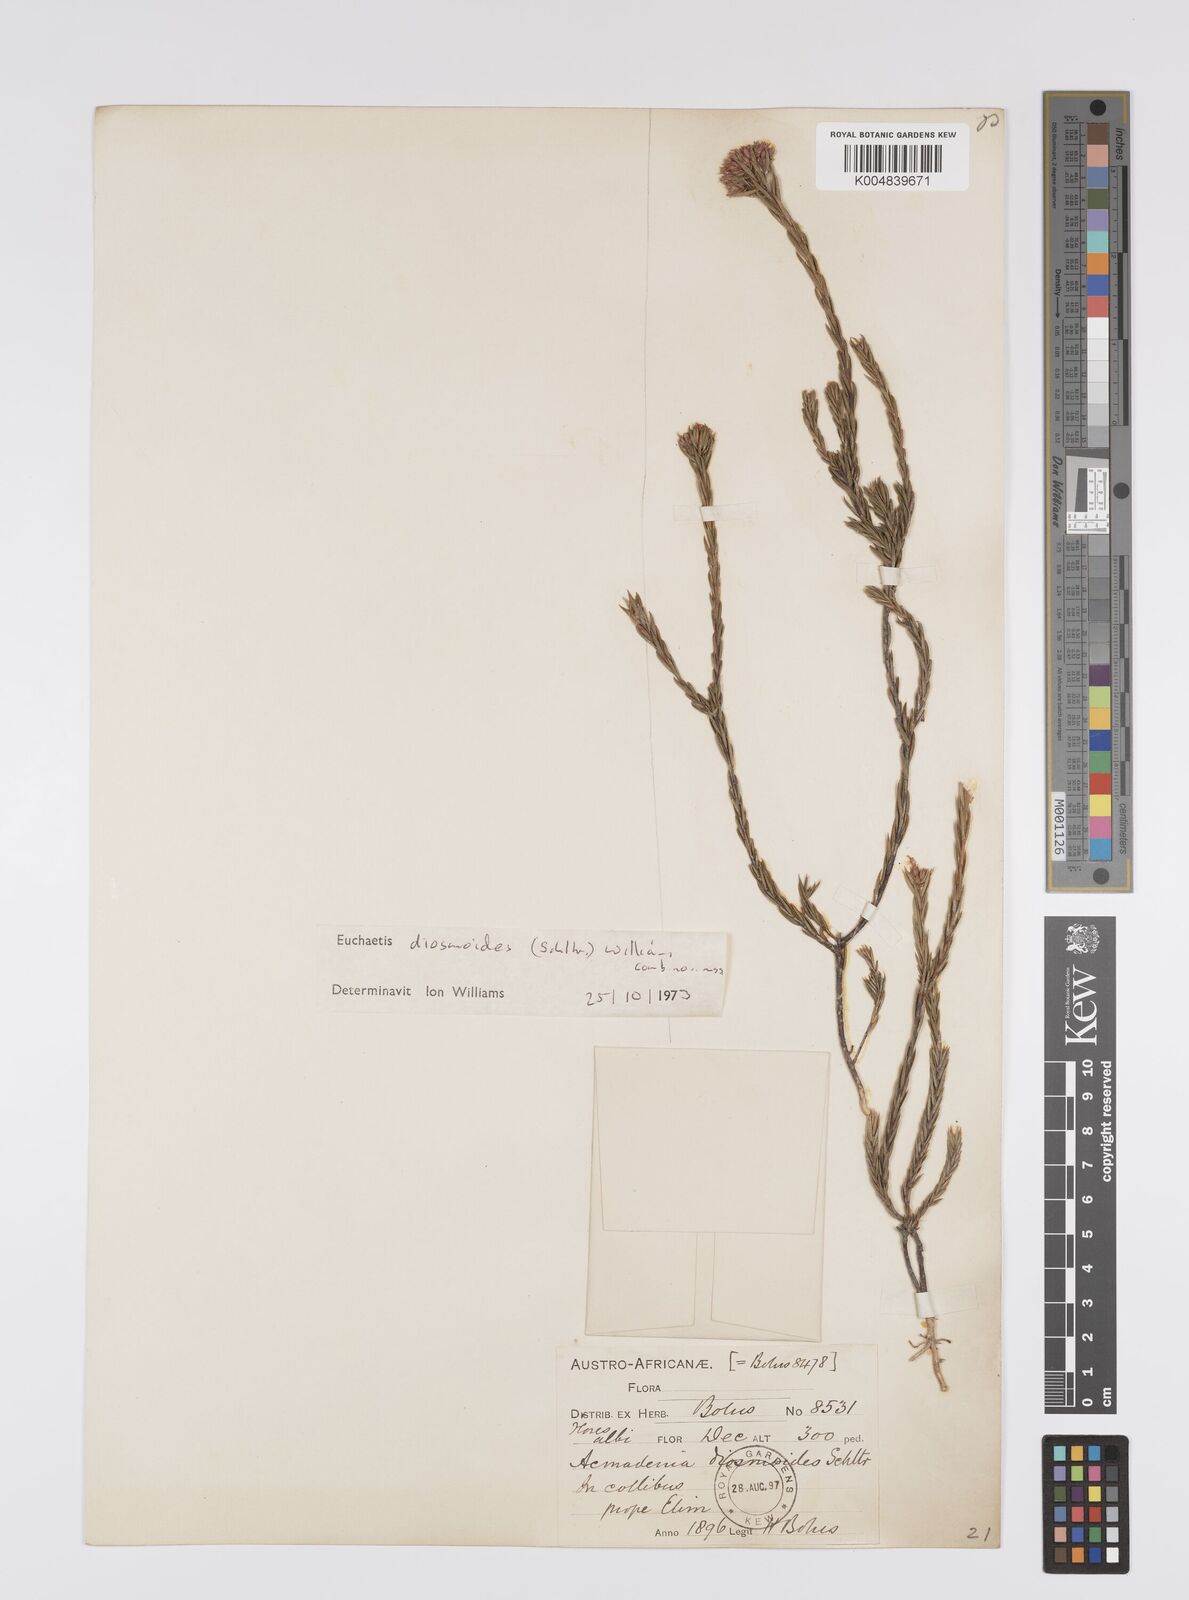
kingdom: Plantae
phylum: Tracheophyta
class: Magnoliopsida
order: Sapindales
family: Rutaceae
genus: Euchaetis
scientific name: Euchaetis diosmoides
